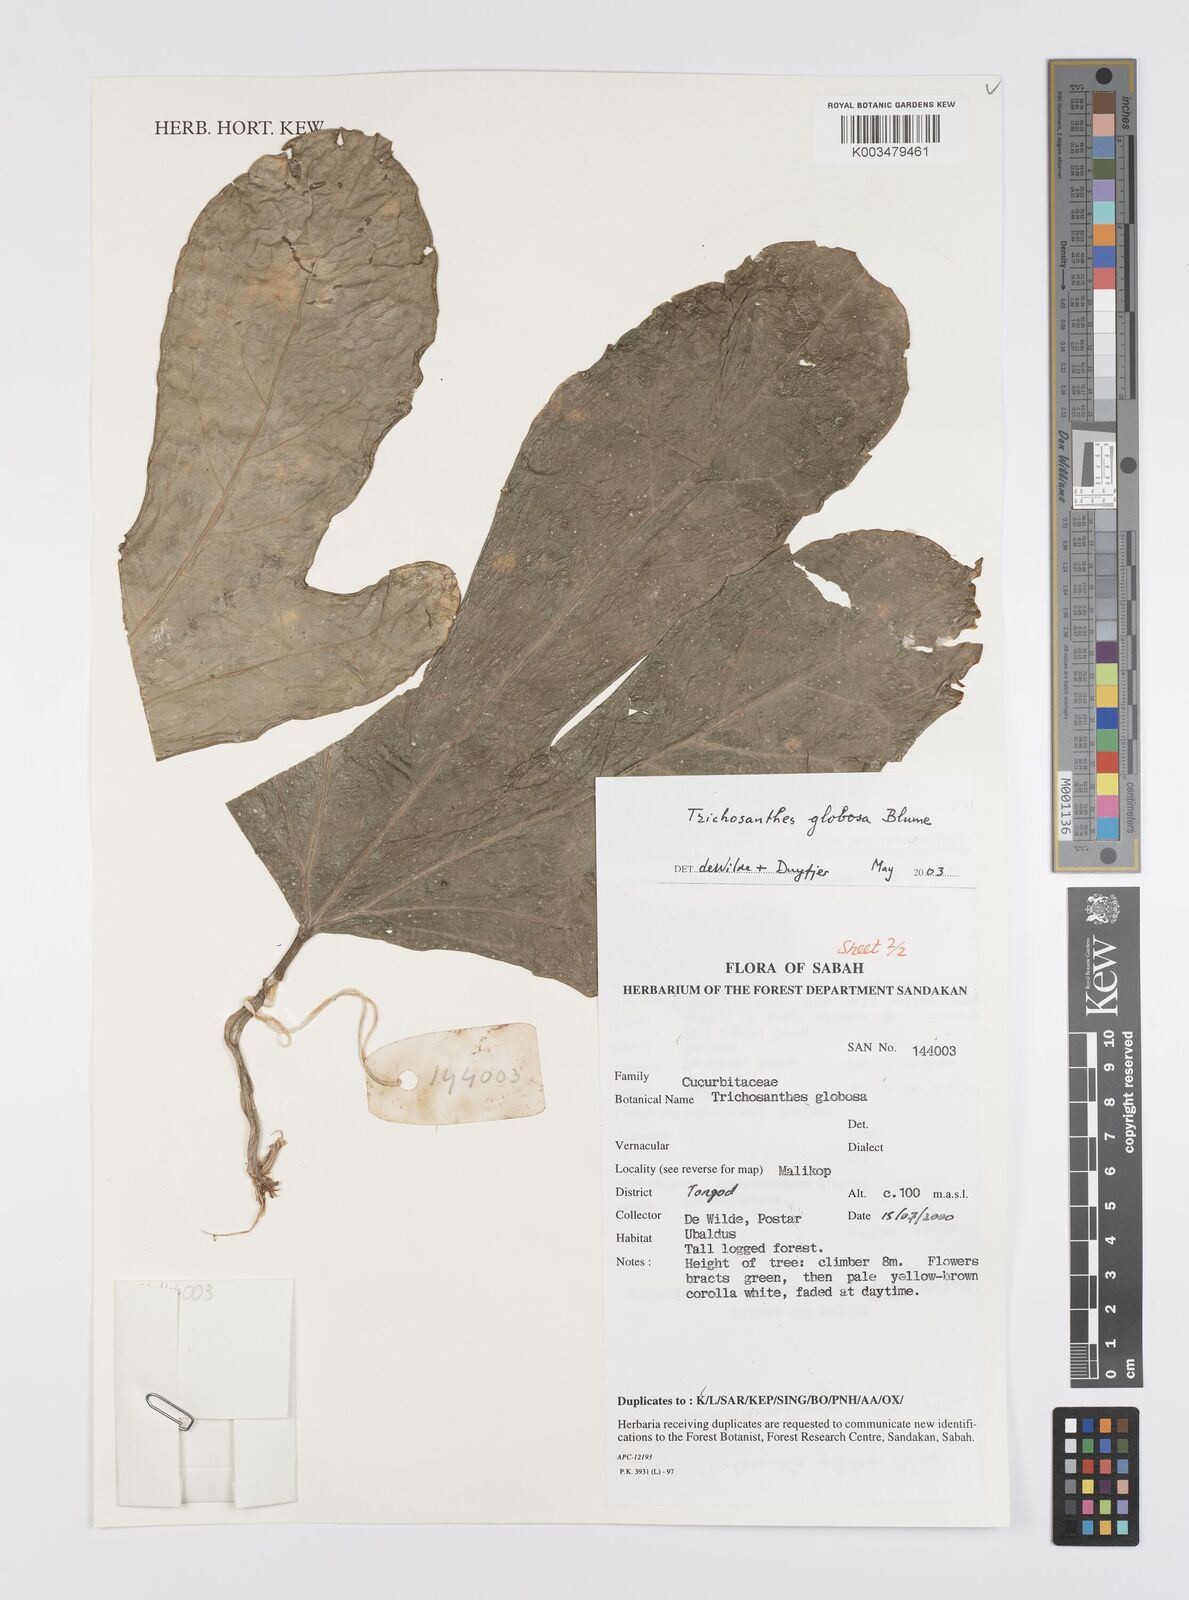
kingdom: Plantae
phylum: Tracheophyta
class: Magnoliopsida
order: Cucurbitales
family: Cucurbitaceae
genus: Trichosanthes
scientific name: Trichosanthes globosa
